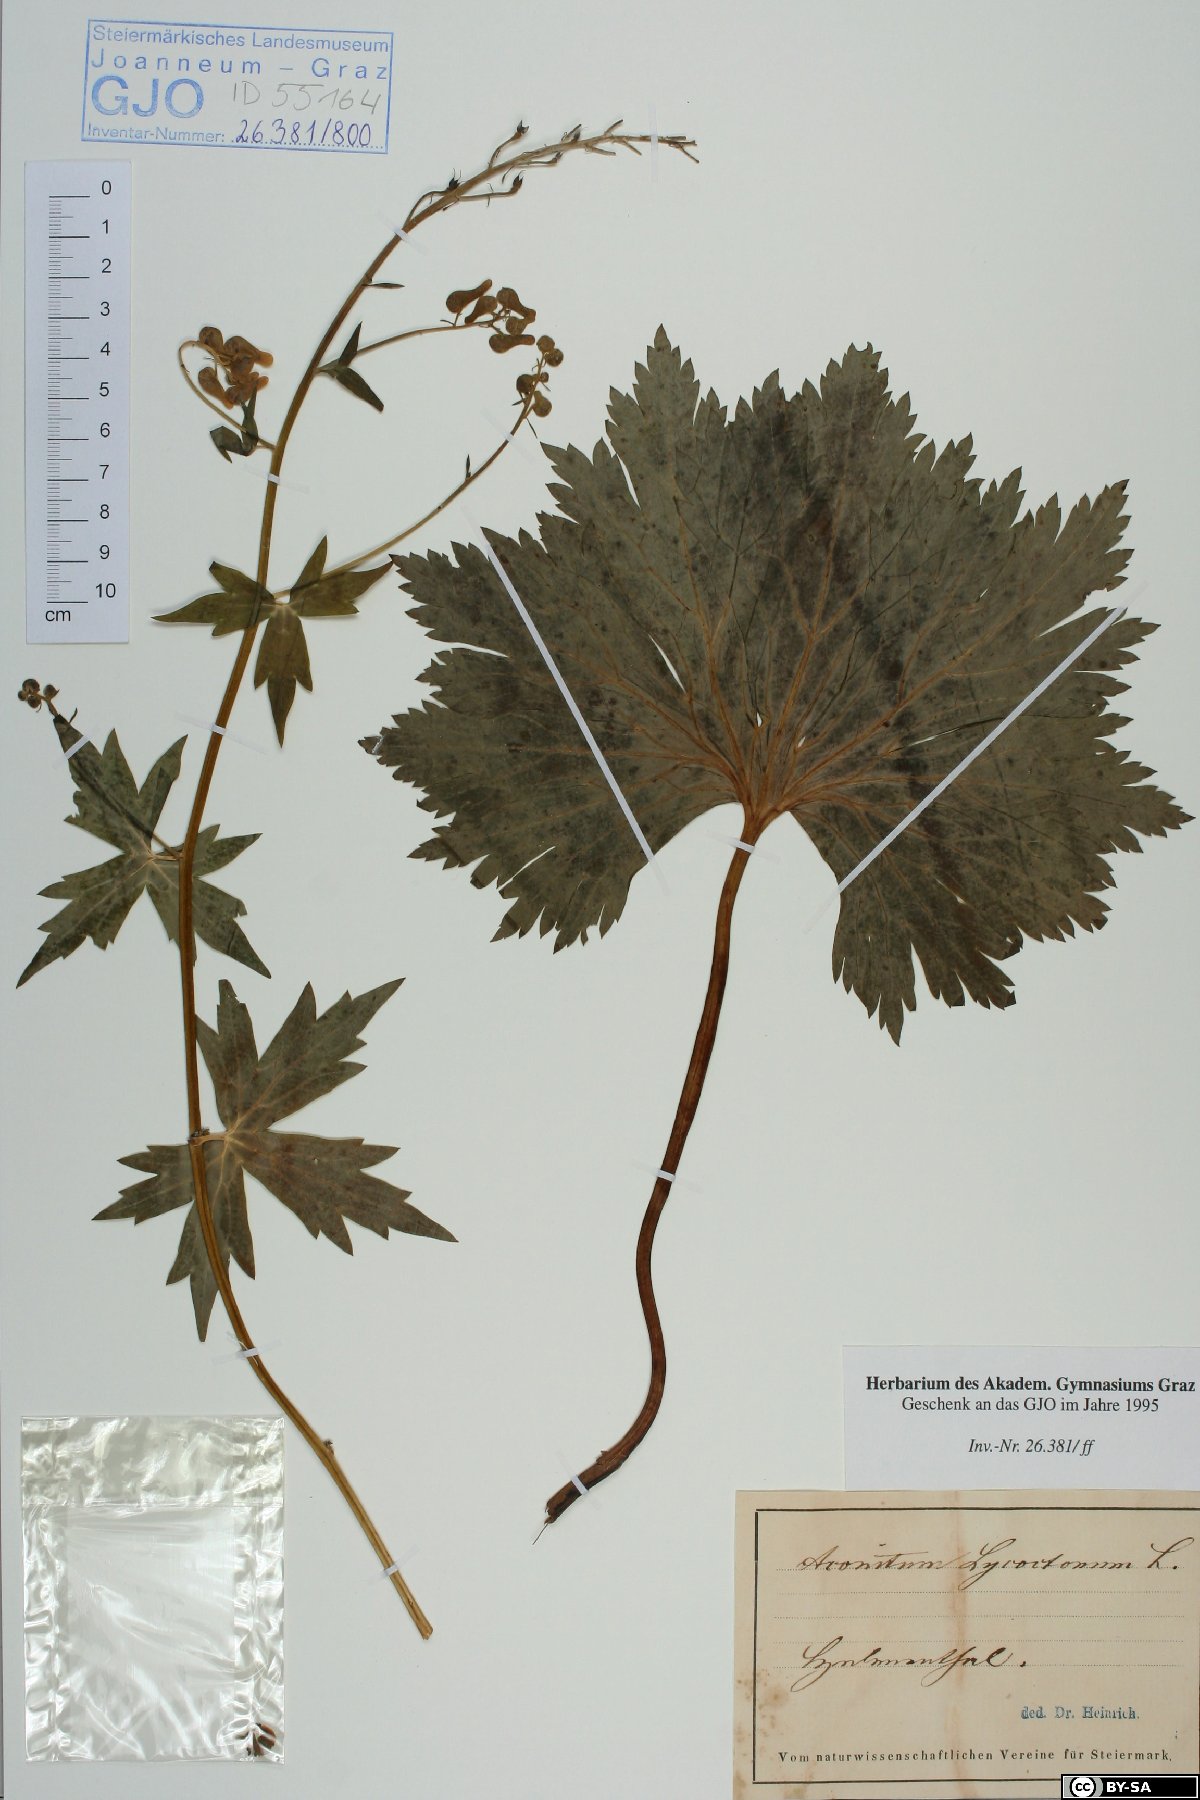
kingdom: Plantae
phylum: Tracheophyta
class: Magnoliopsida
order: Ranunculales
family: Ranunculaceae
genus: Aconitum
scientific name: Aconitum lycoctonum
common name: Wolf's-bane
